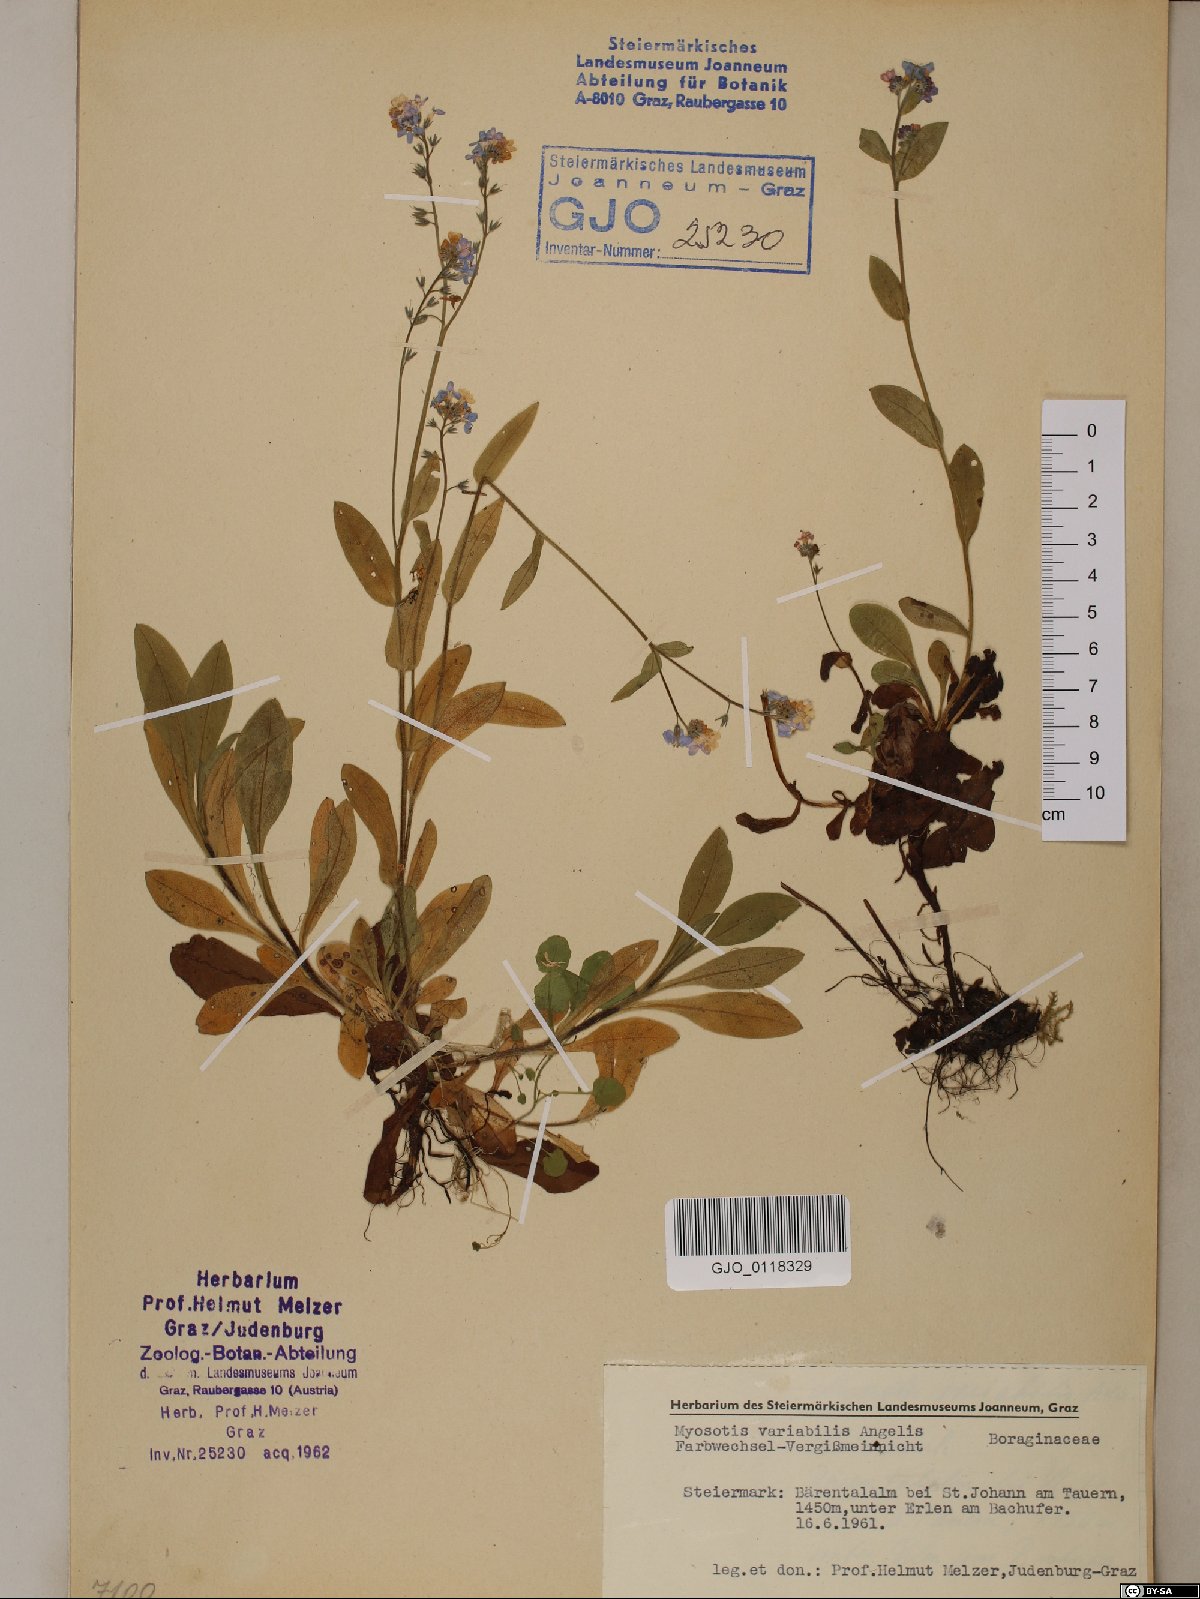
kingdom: Plantae
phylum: Tracheophyta
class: Magnoliopsida
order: Boraginales
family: Boraginaceae
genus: Myosotis
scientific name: Myosotis decumbens
